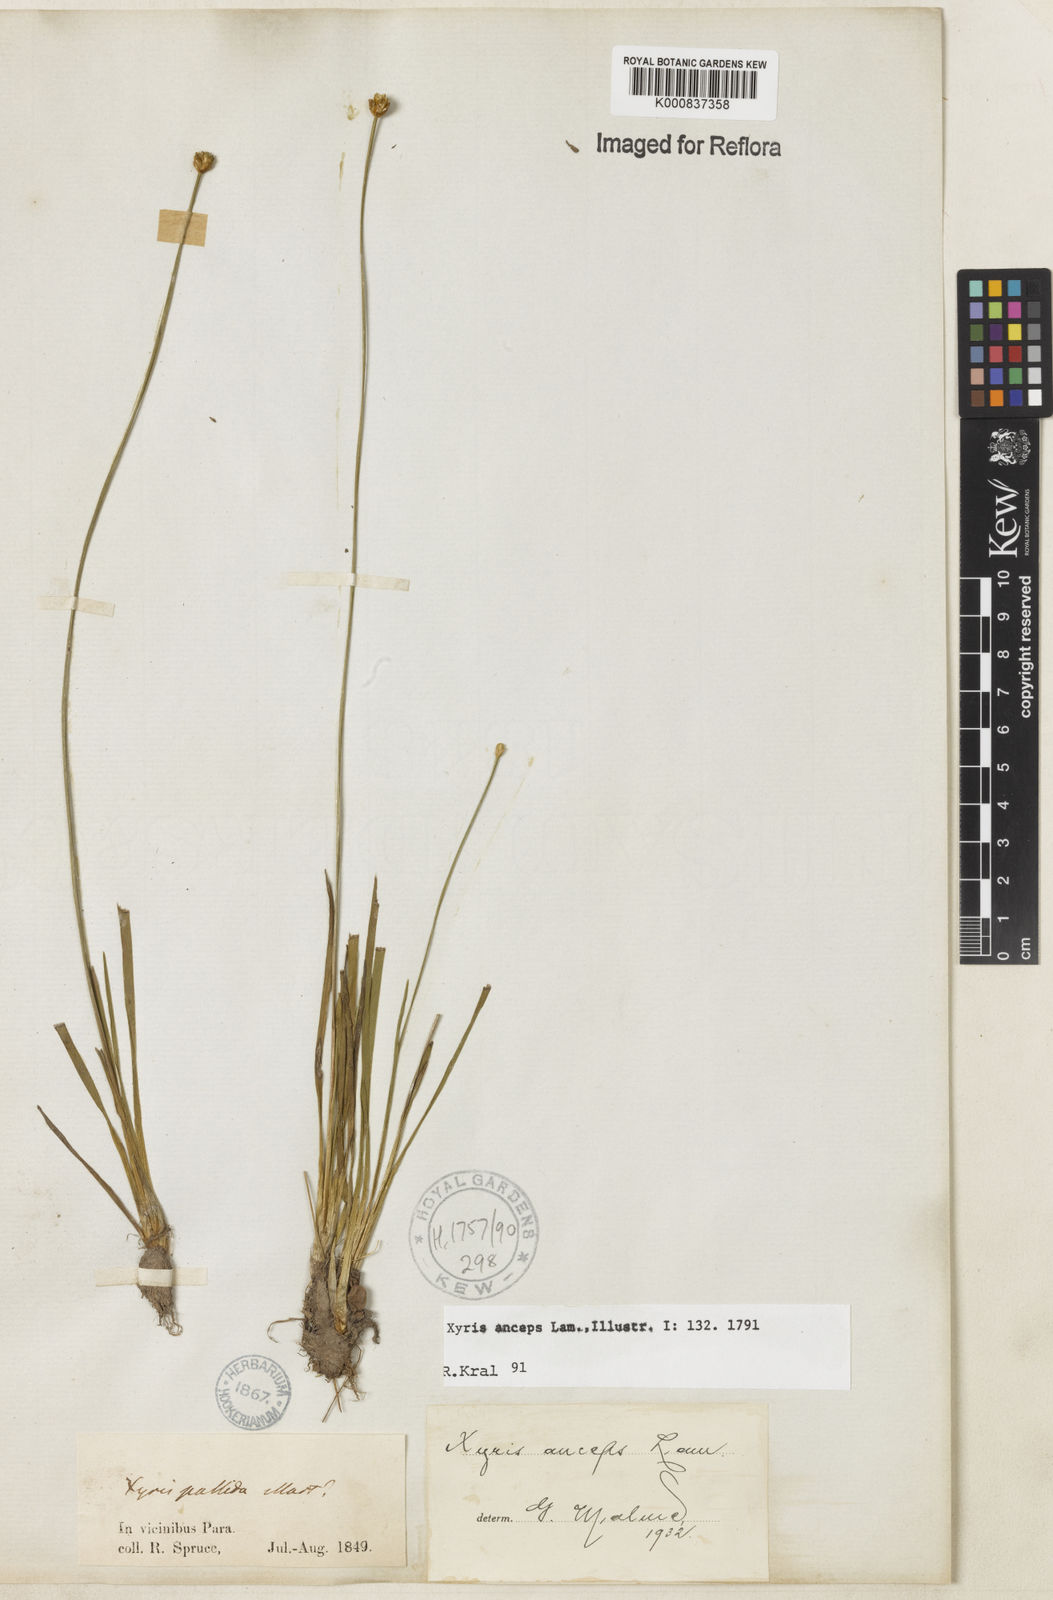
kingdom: Plantae
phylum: Tracheophyta
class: Liliopsida
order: Poales
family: Xyridaceae
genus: Xyris
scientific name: Xyris
